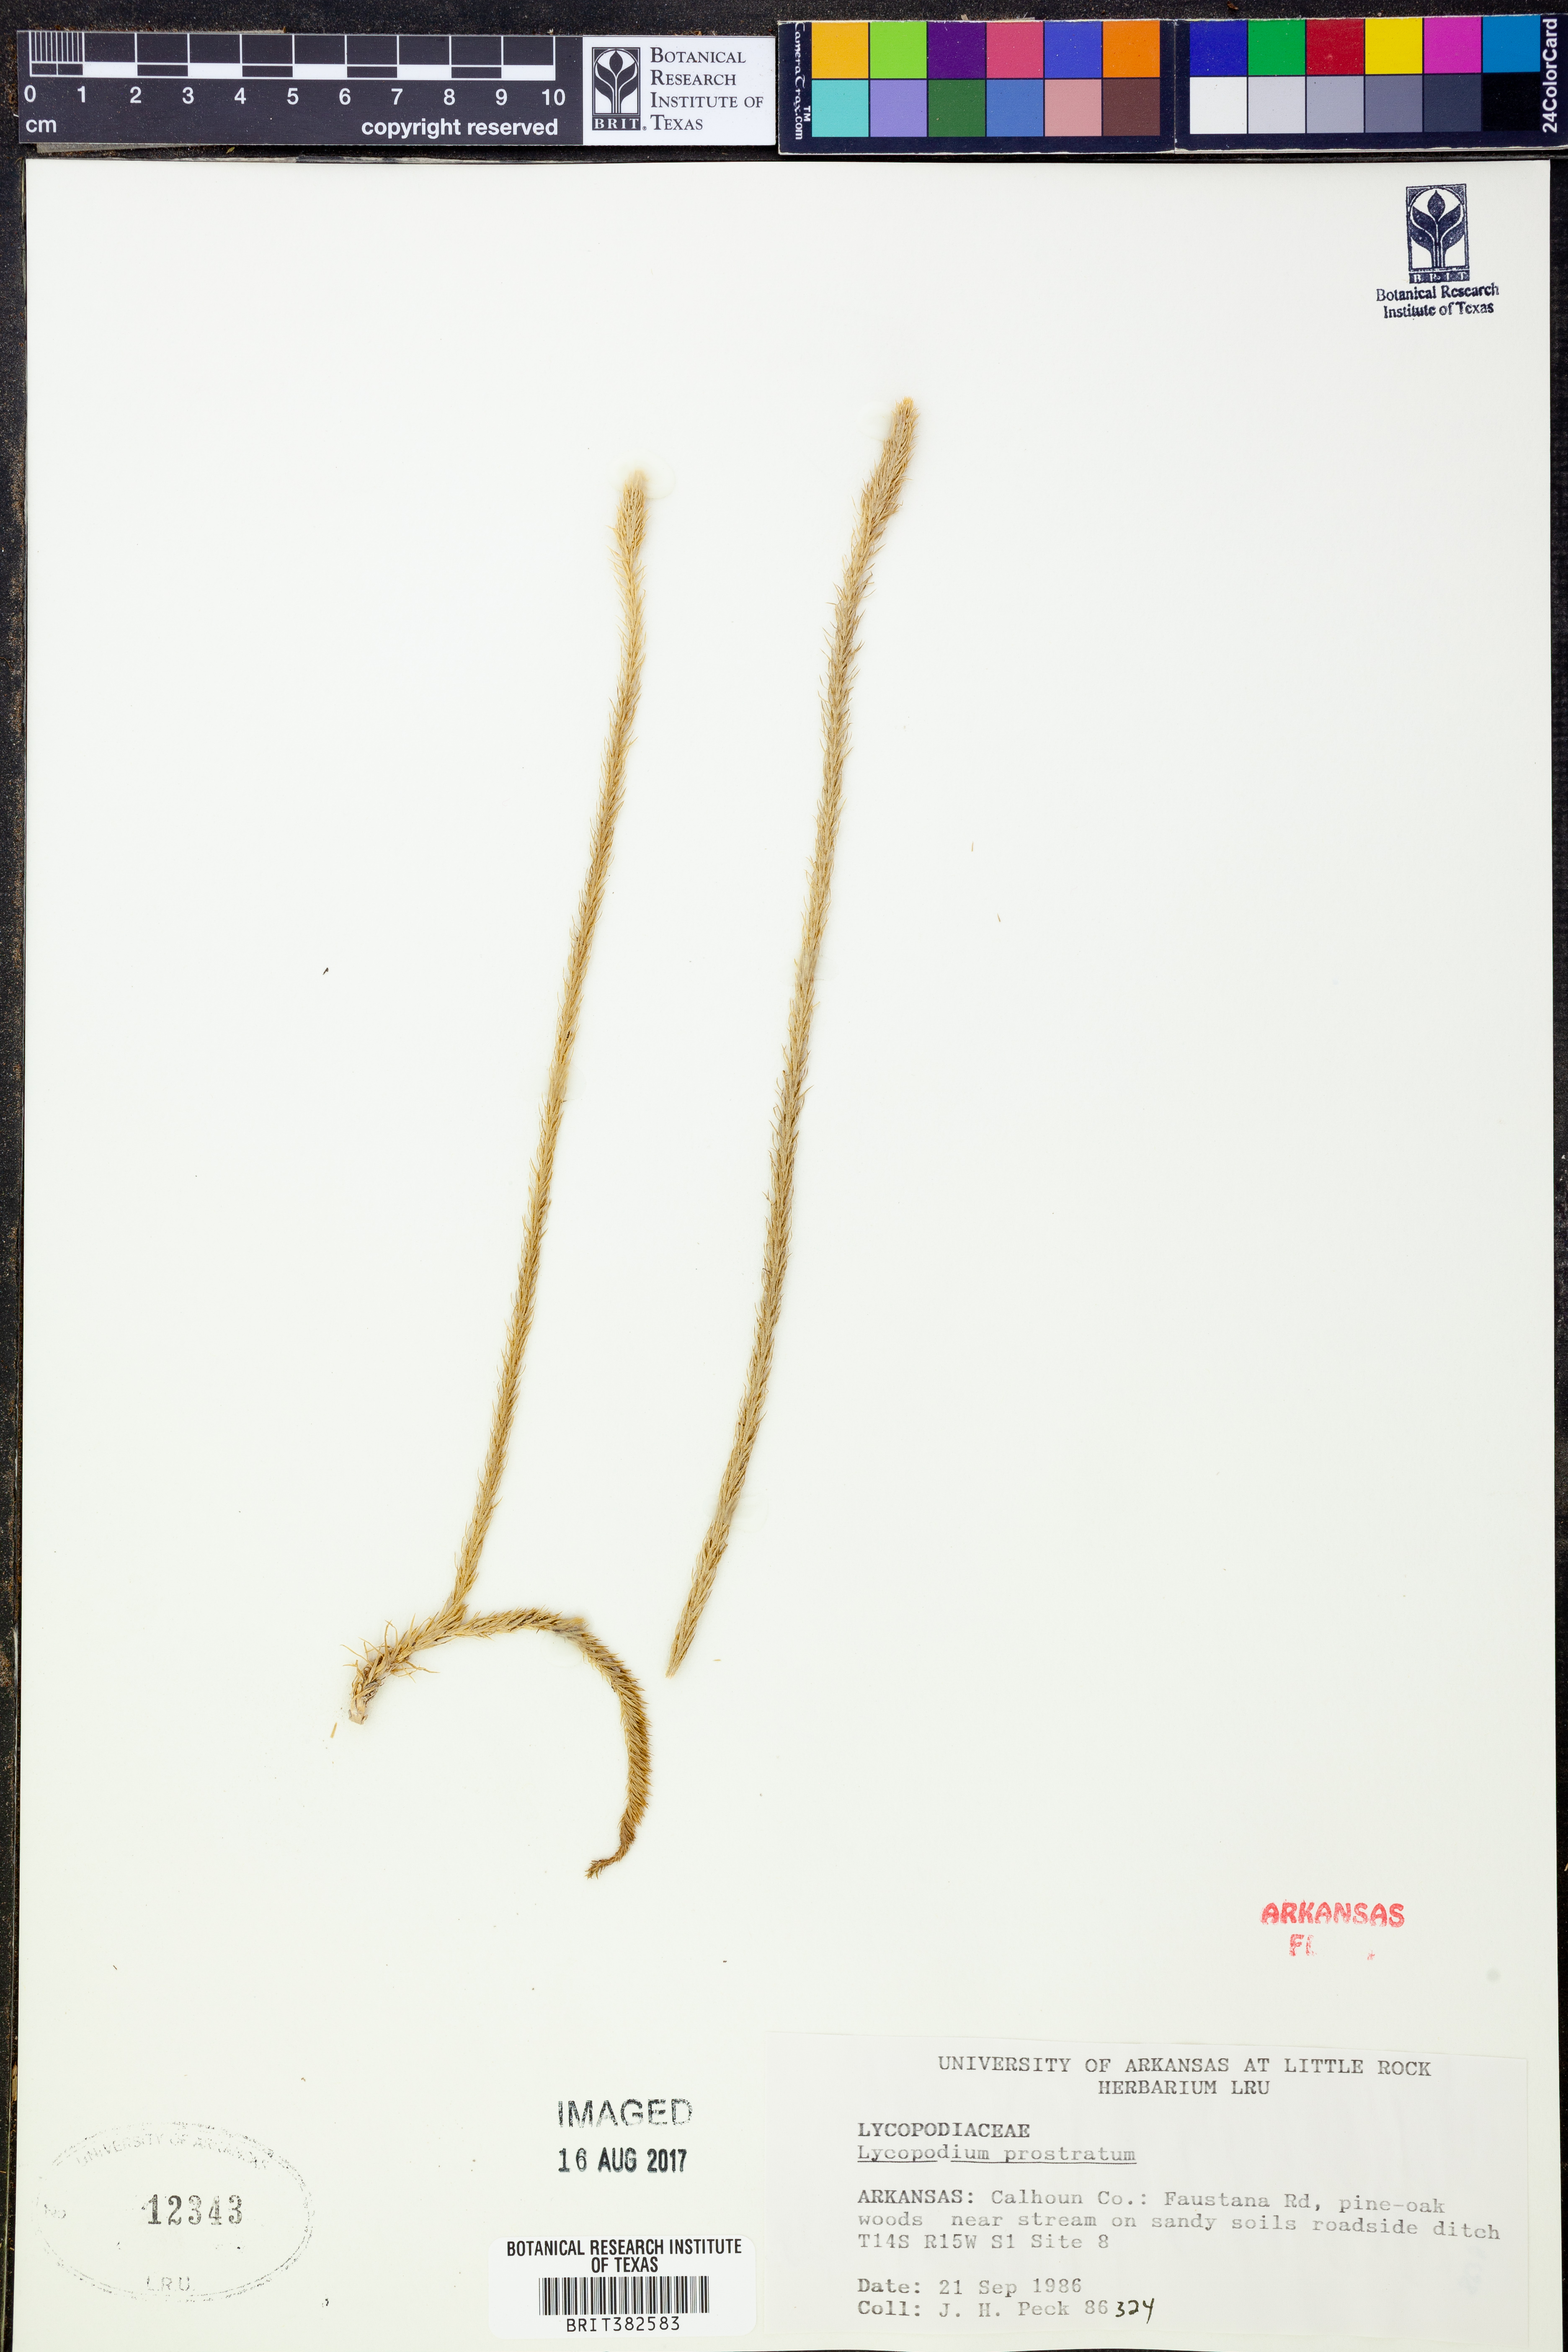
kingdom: Plantae
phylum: Tracheophyta
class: Lycopodiopsida
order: Lycopodiales
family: Lycopodiaceae
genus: Lycopodiella
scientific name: Lycopodiella prostrata
